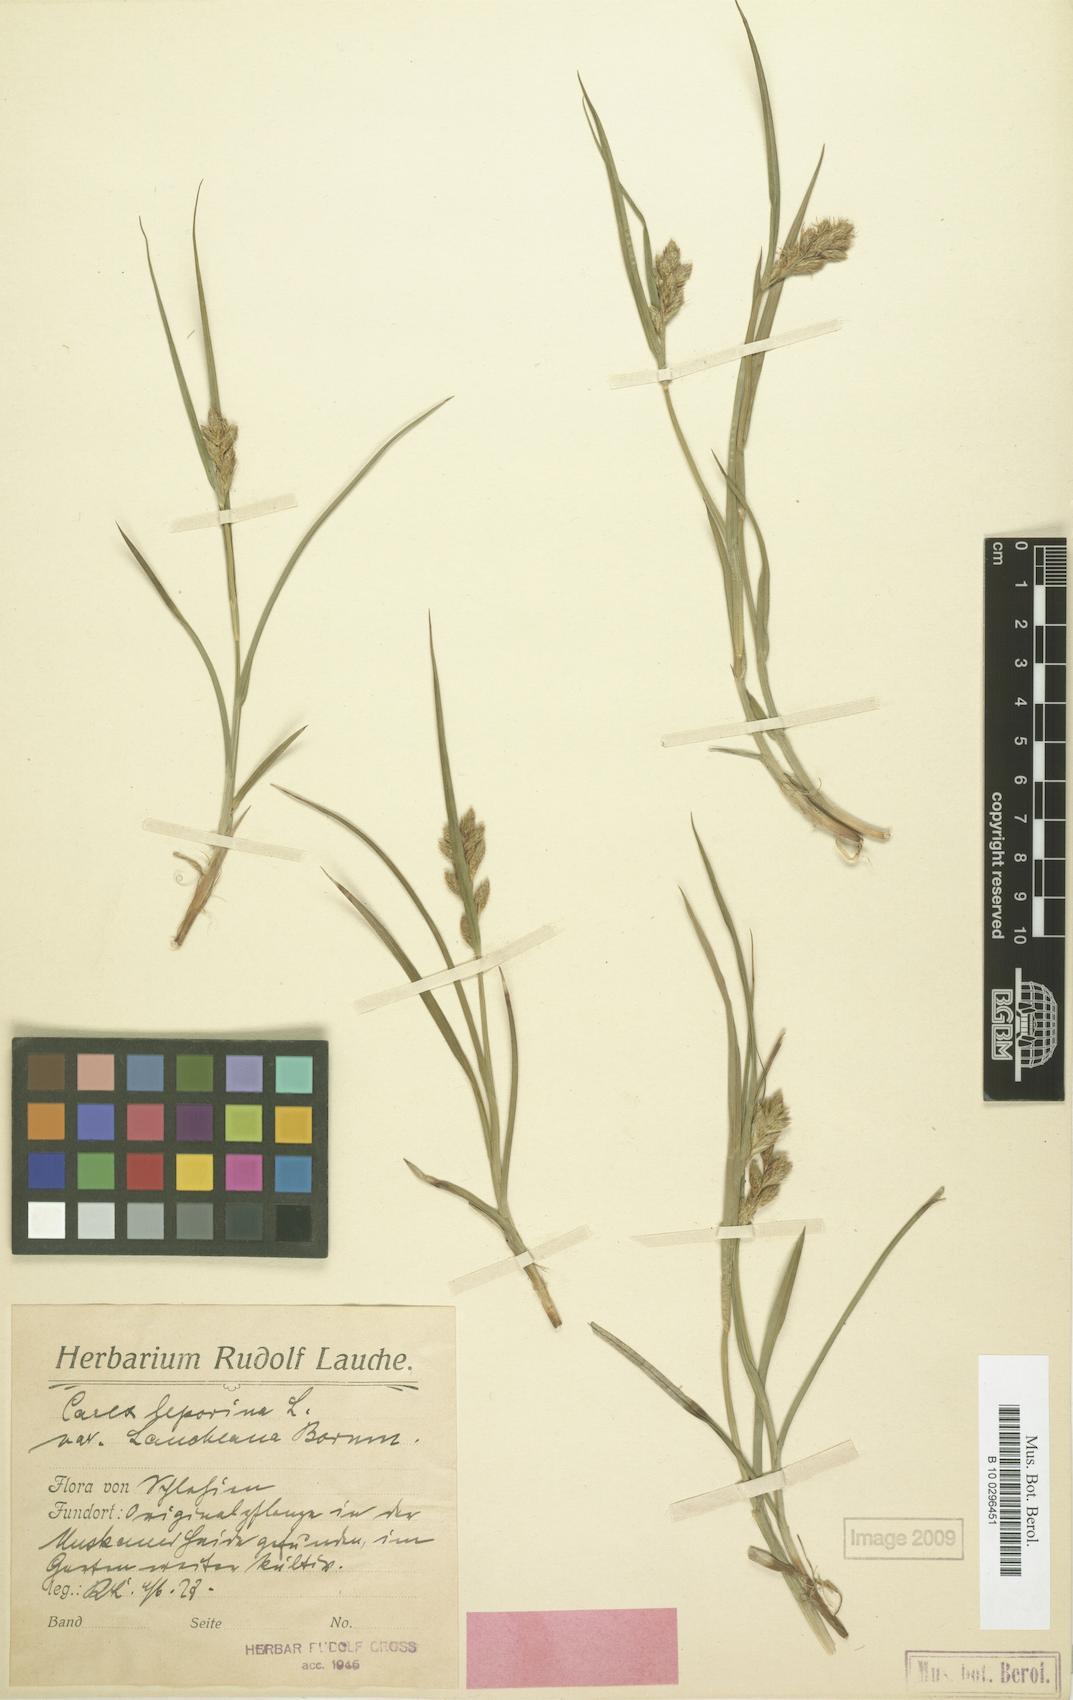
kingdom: Plantae
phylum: Tracheophyta
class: Liliopsida
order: Poales
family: Cyperaceae
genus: Carex
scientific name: Carex leporina
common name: Oval sedge
